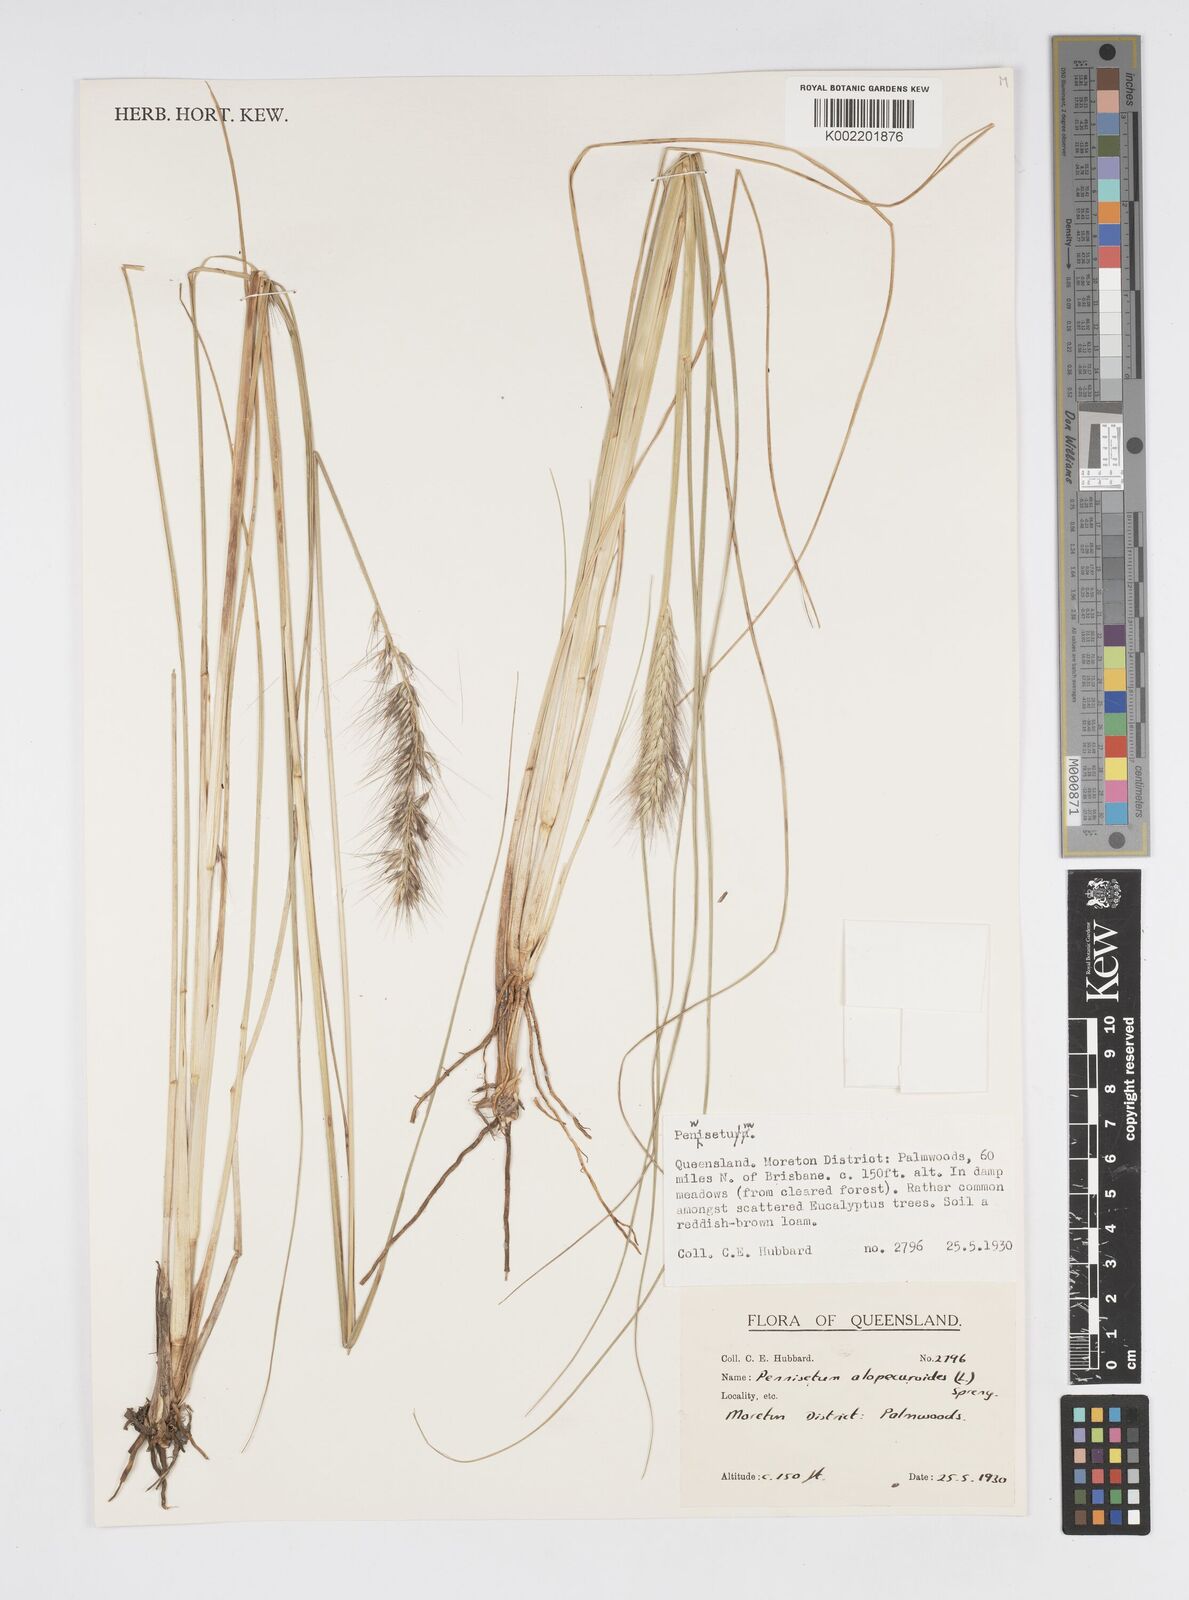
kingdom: Plantae
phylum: Tracheophyta
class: Liliopsida
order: Poales
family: Poaceae
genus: Cenchrus
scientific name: Cenchrus alopecuroides
